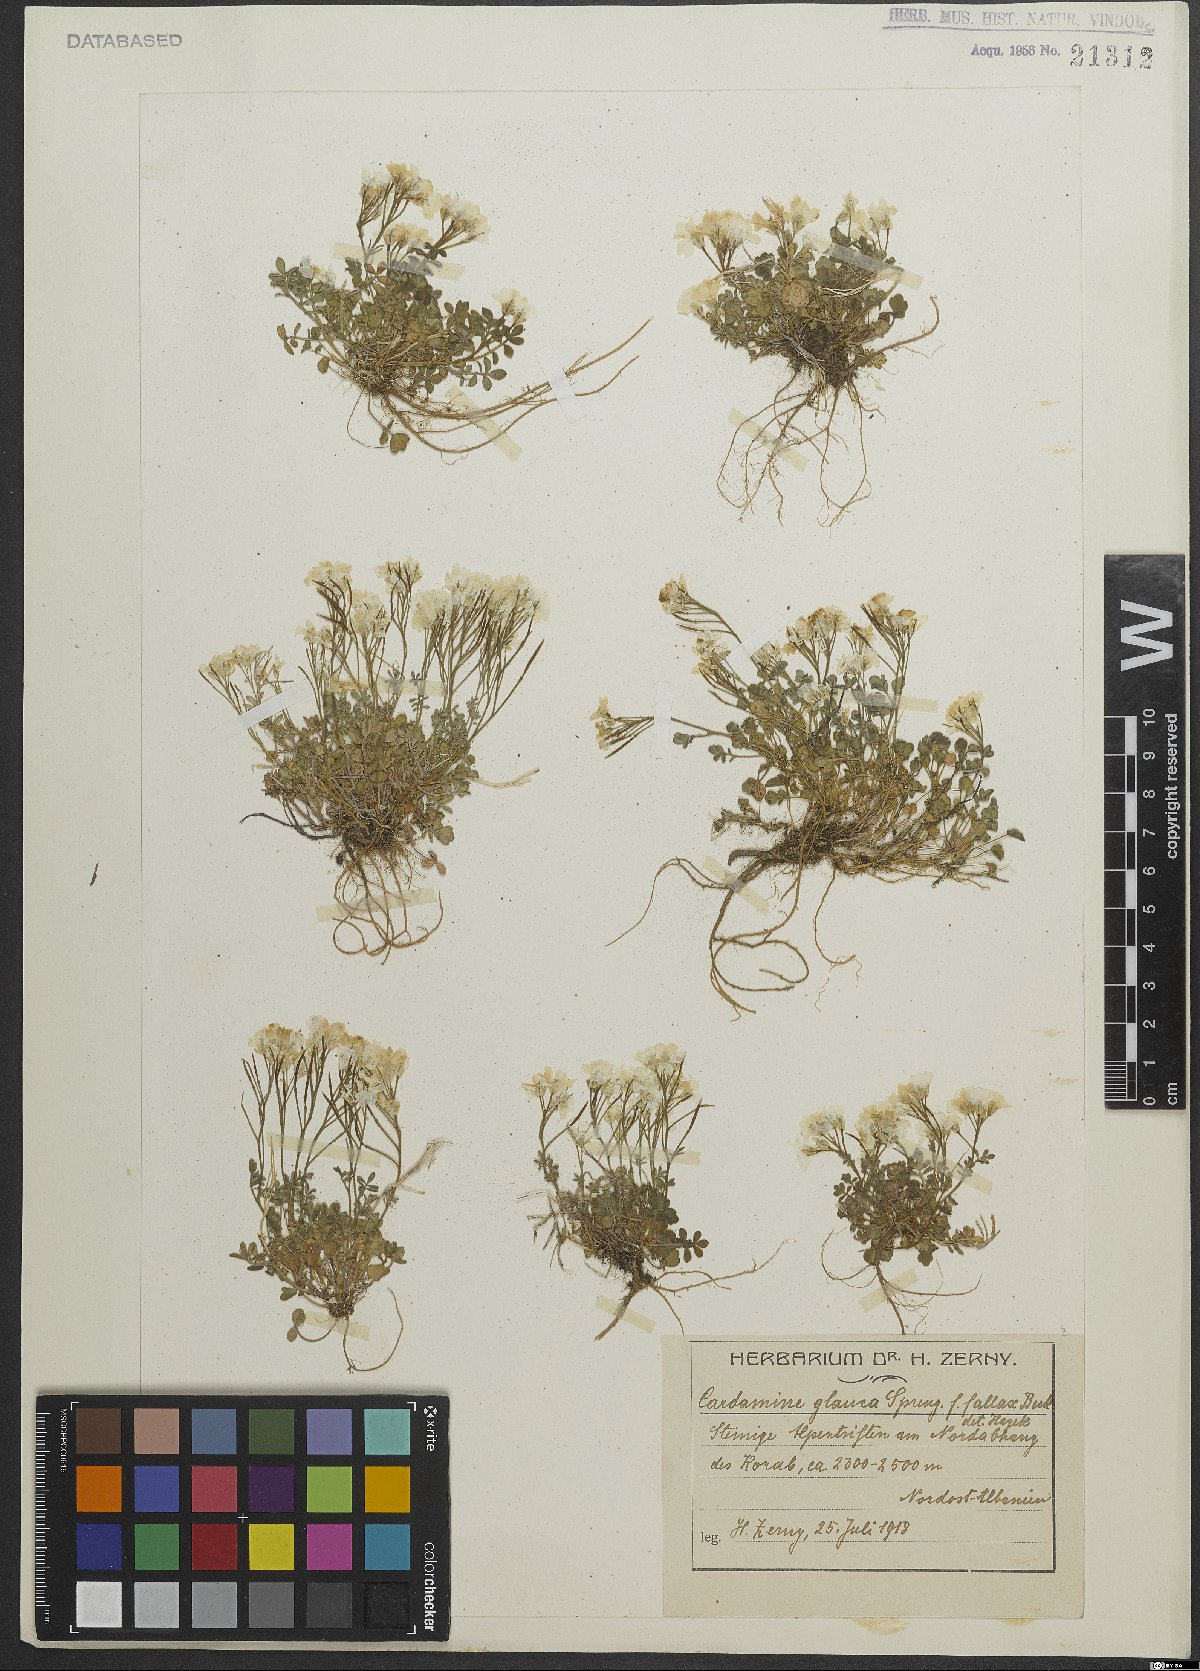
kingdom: Plantae
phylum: Tracheophyta
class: Magnoliopsida
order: Brassicales
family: Brassicaceae
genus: Cardamine
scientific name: Cardamine glauca
